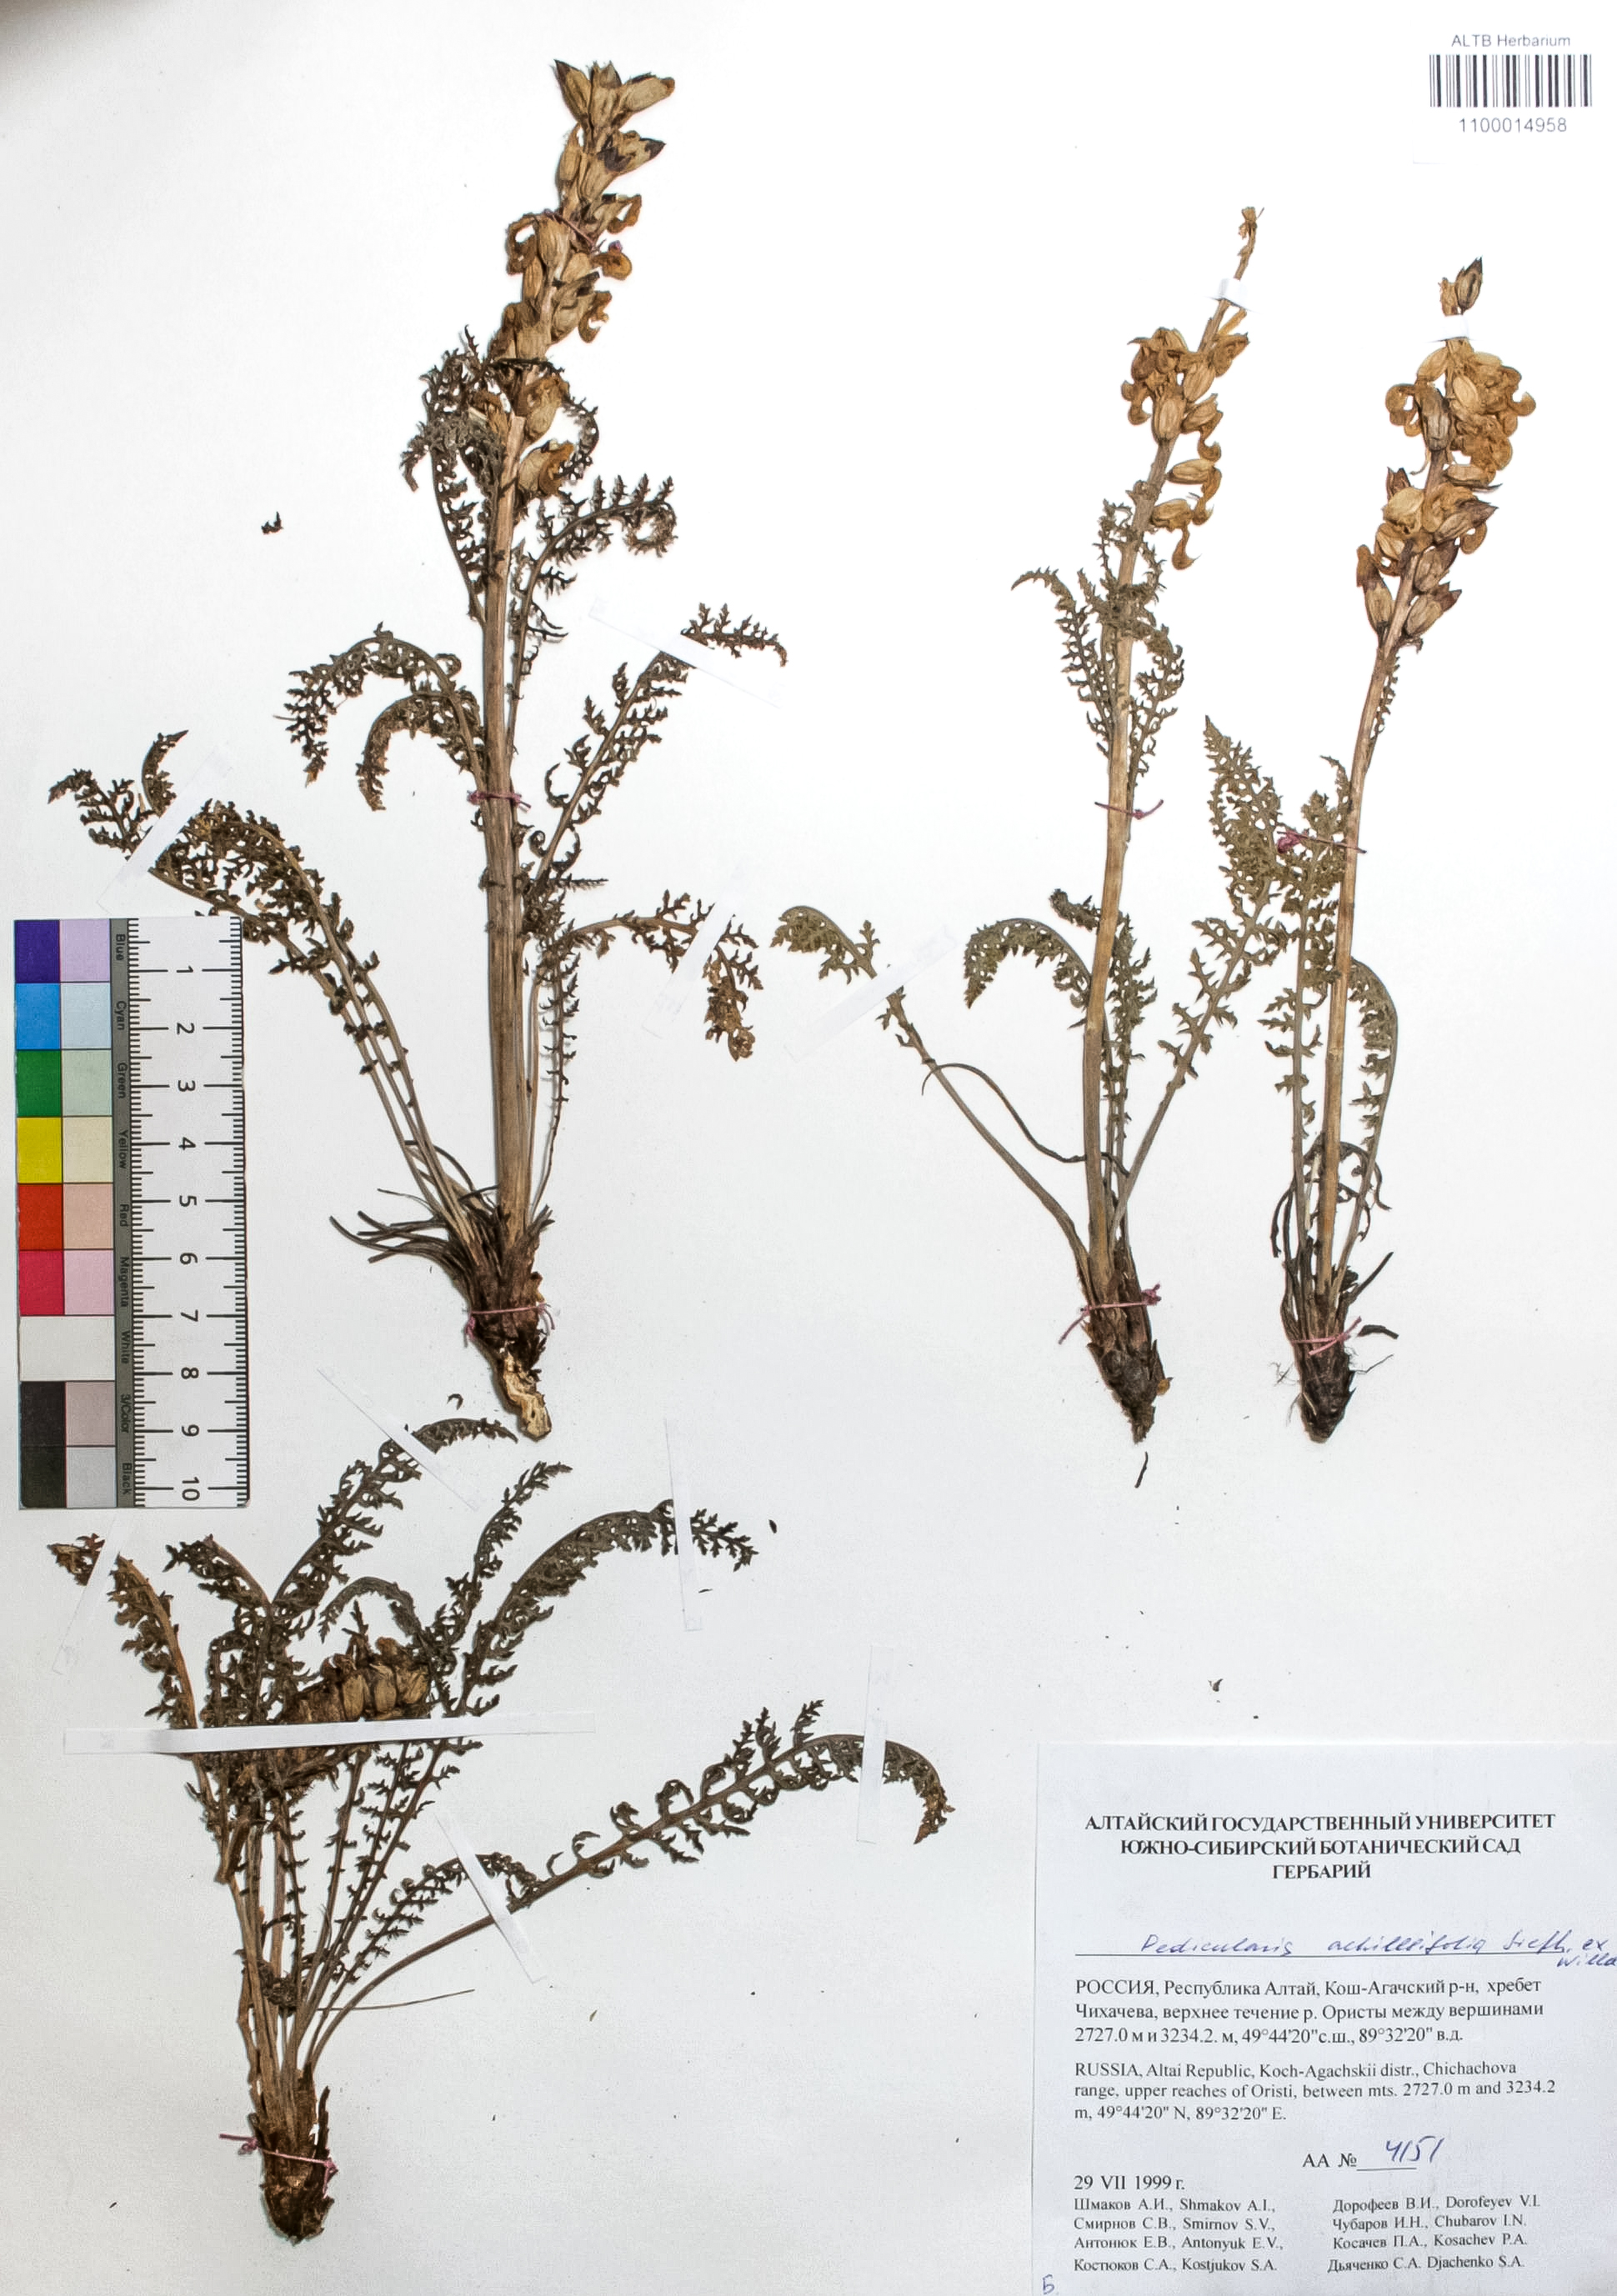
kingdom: Plantae
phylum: Tracheophyta
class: Magnoliopsida
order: Lamiales
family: Orobanchaceae
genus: Pedicularis
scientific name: Pedicularis achilleifolia
